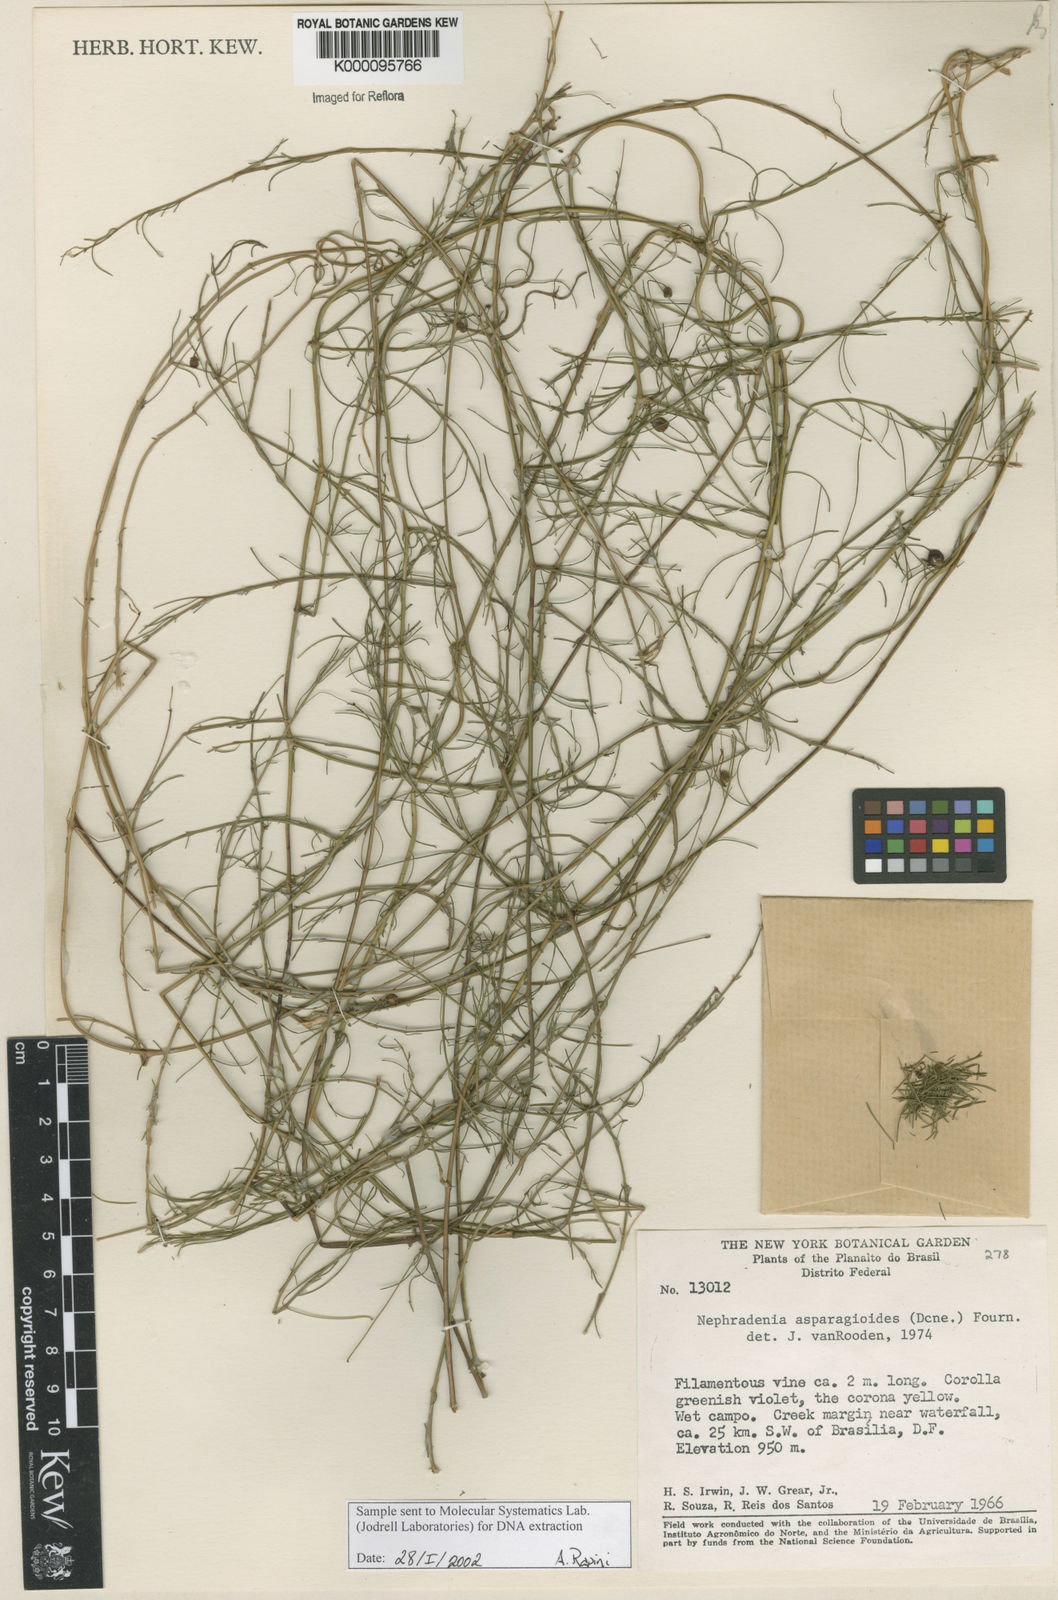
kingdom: Plantae
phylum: Tracheophyta
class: Magnoliopsida
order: Gentianales
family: Apocynaceae
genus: Nephradenia
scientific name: Nephradenia asparagoides
